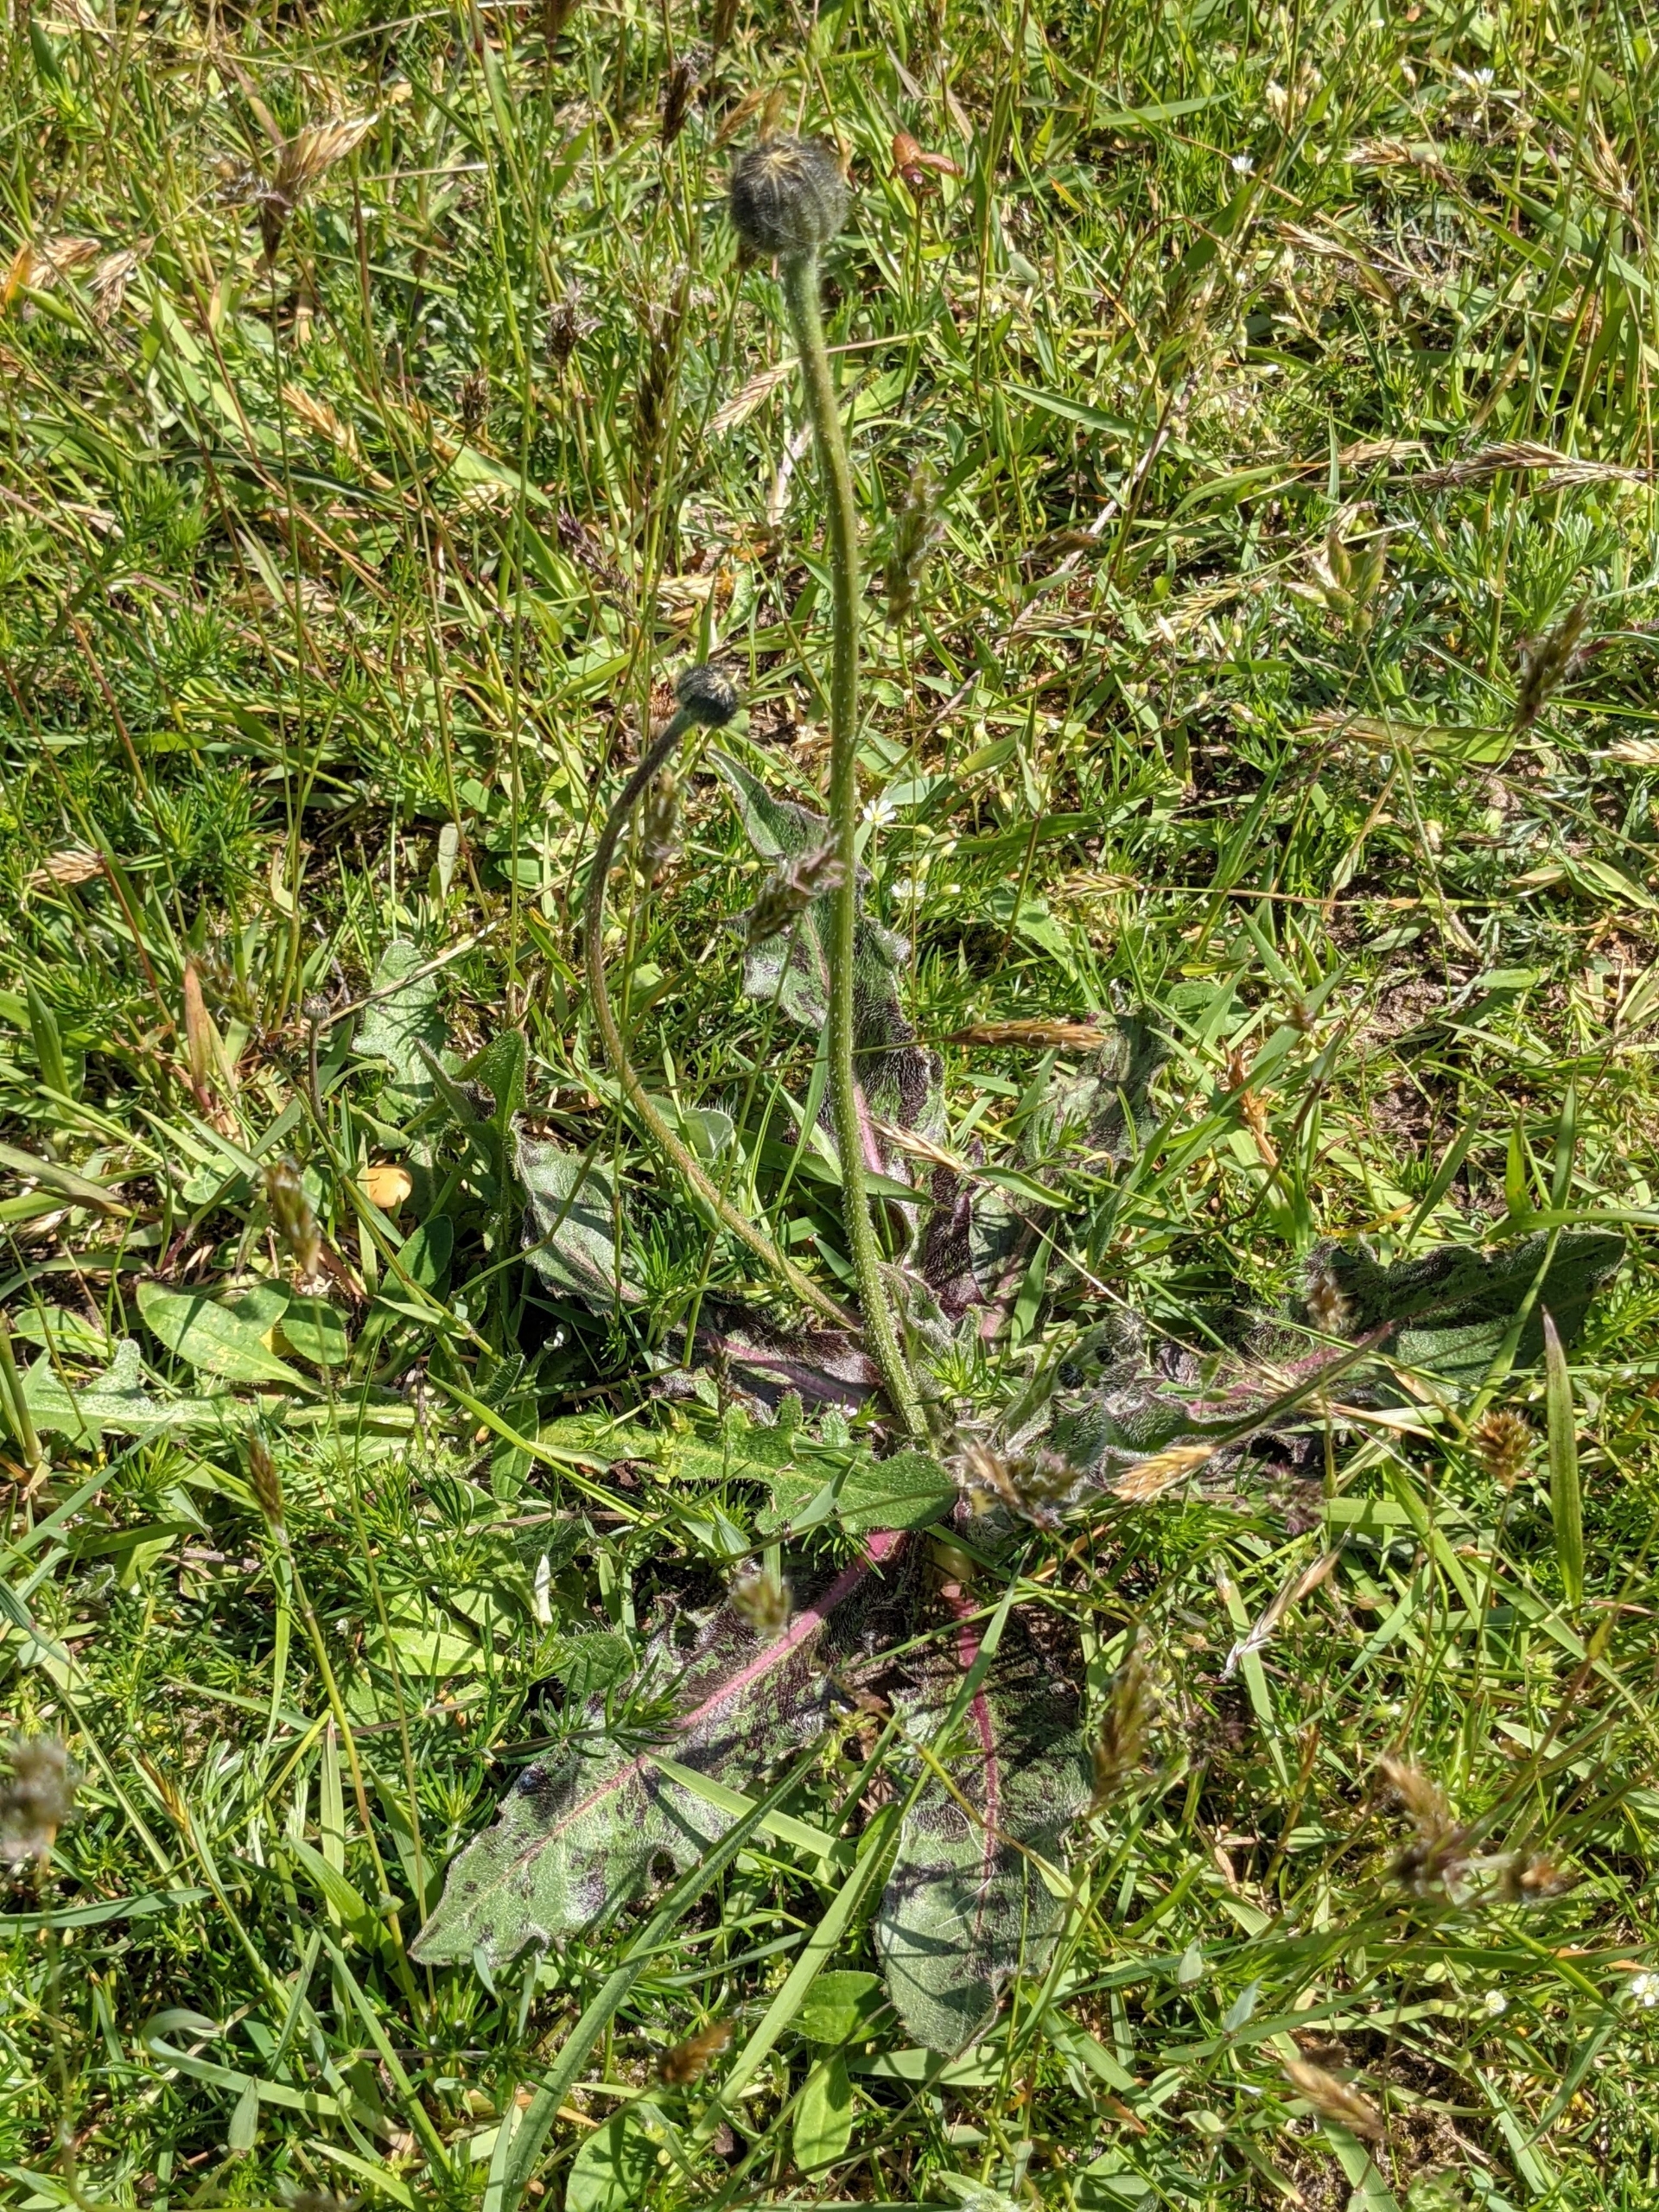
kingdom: Plantae
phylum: Tracheophyta
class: Magnoliopsida
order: Asterales
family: Asteraceae
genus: Trommsdorffia
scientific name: Trommsdorffia maculata
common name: Plettet kongepen
